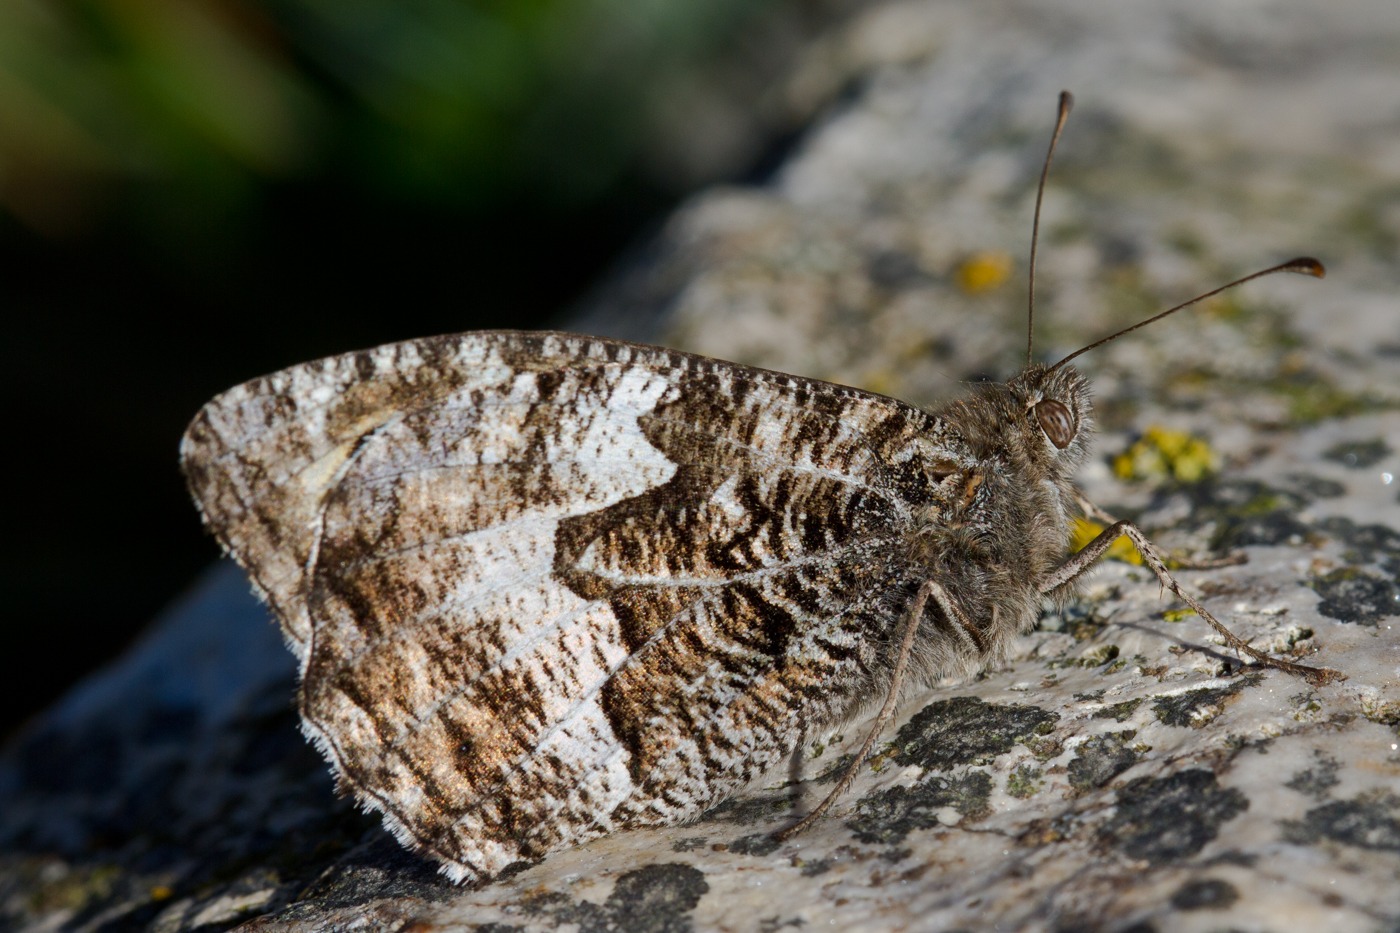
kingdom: Animalia
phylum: Arthropoda
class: Insecta
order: Lepidoptera
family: Nymphalidae
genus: Hipparchia
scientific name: Hipparchia semele
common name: Sandrandøje
